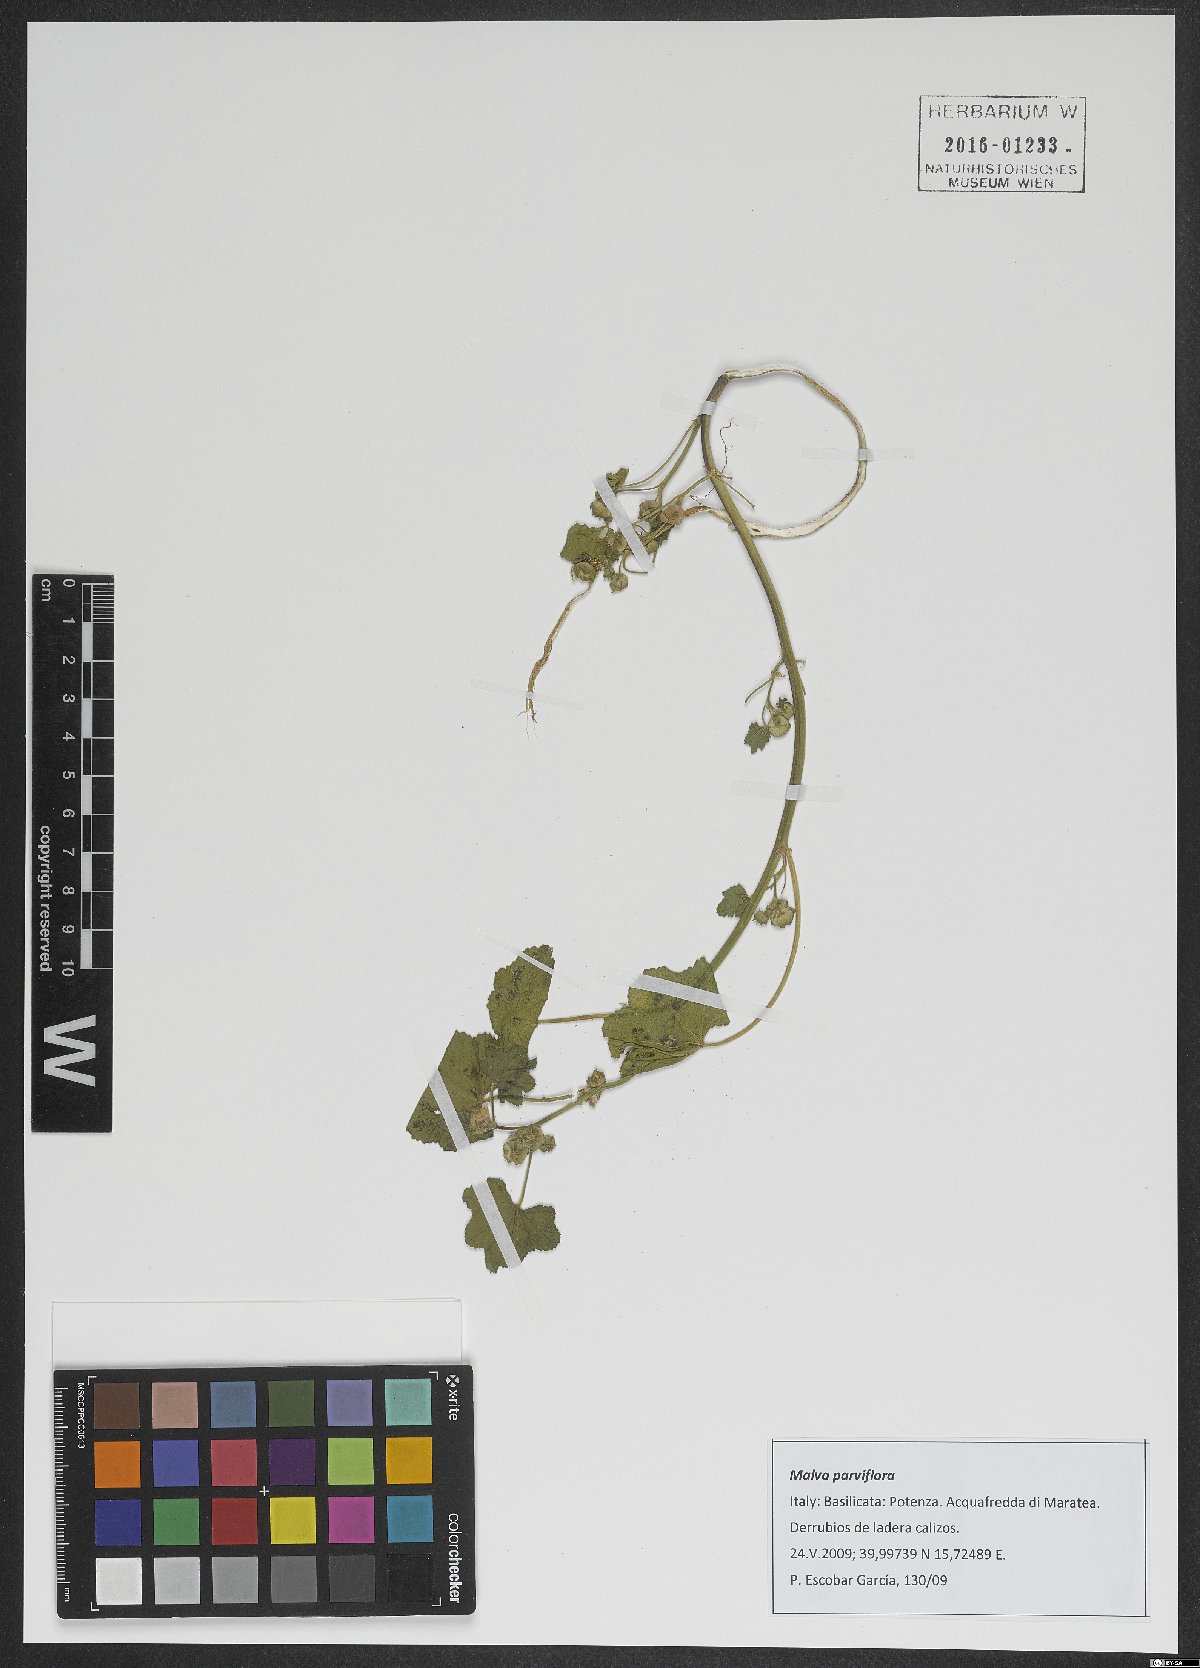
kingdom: Plantae
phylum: Tracheophyta
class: Magnoliopsida
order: Malvales
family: Malvaceae
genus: Malva
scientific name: Malva parviflora
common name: Least mallow
